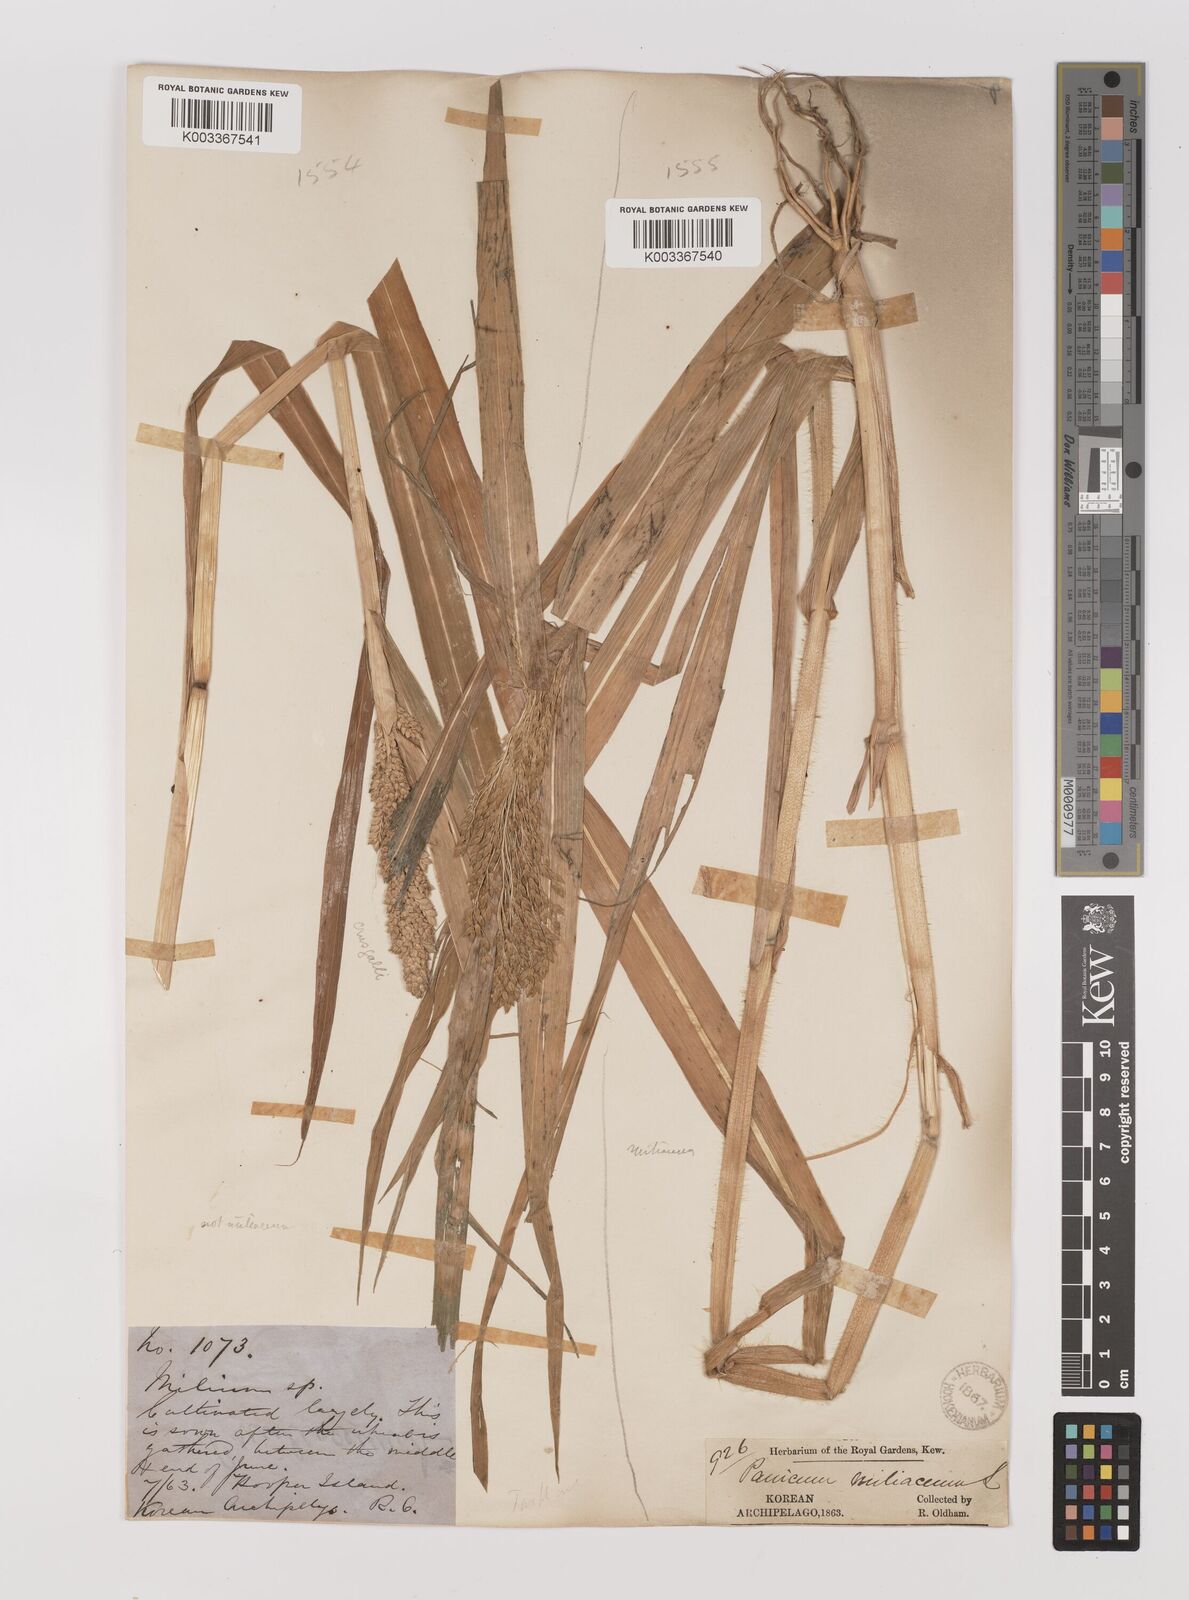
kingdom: Plantae
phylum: Tracheophyta
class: Liliopsida
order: Poales
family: Poaceae
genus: Panicum
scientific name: Panicum miliaceum
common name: Common millet
